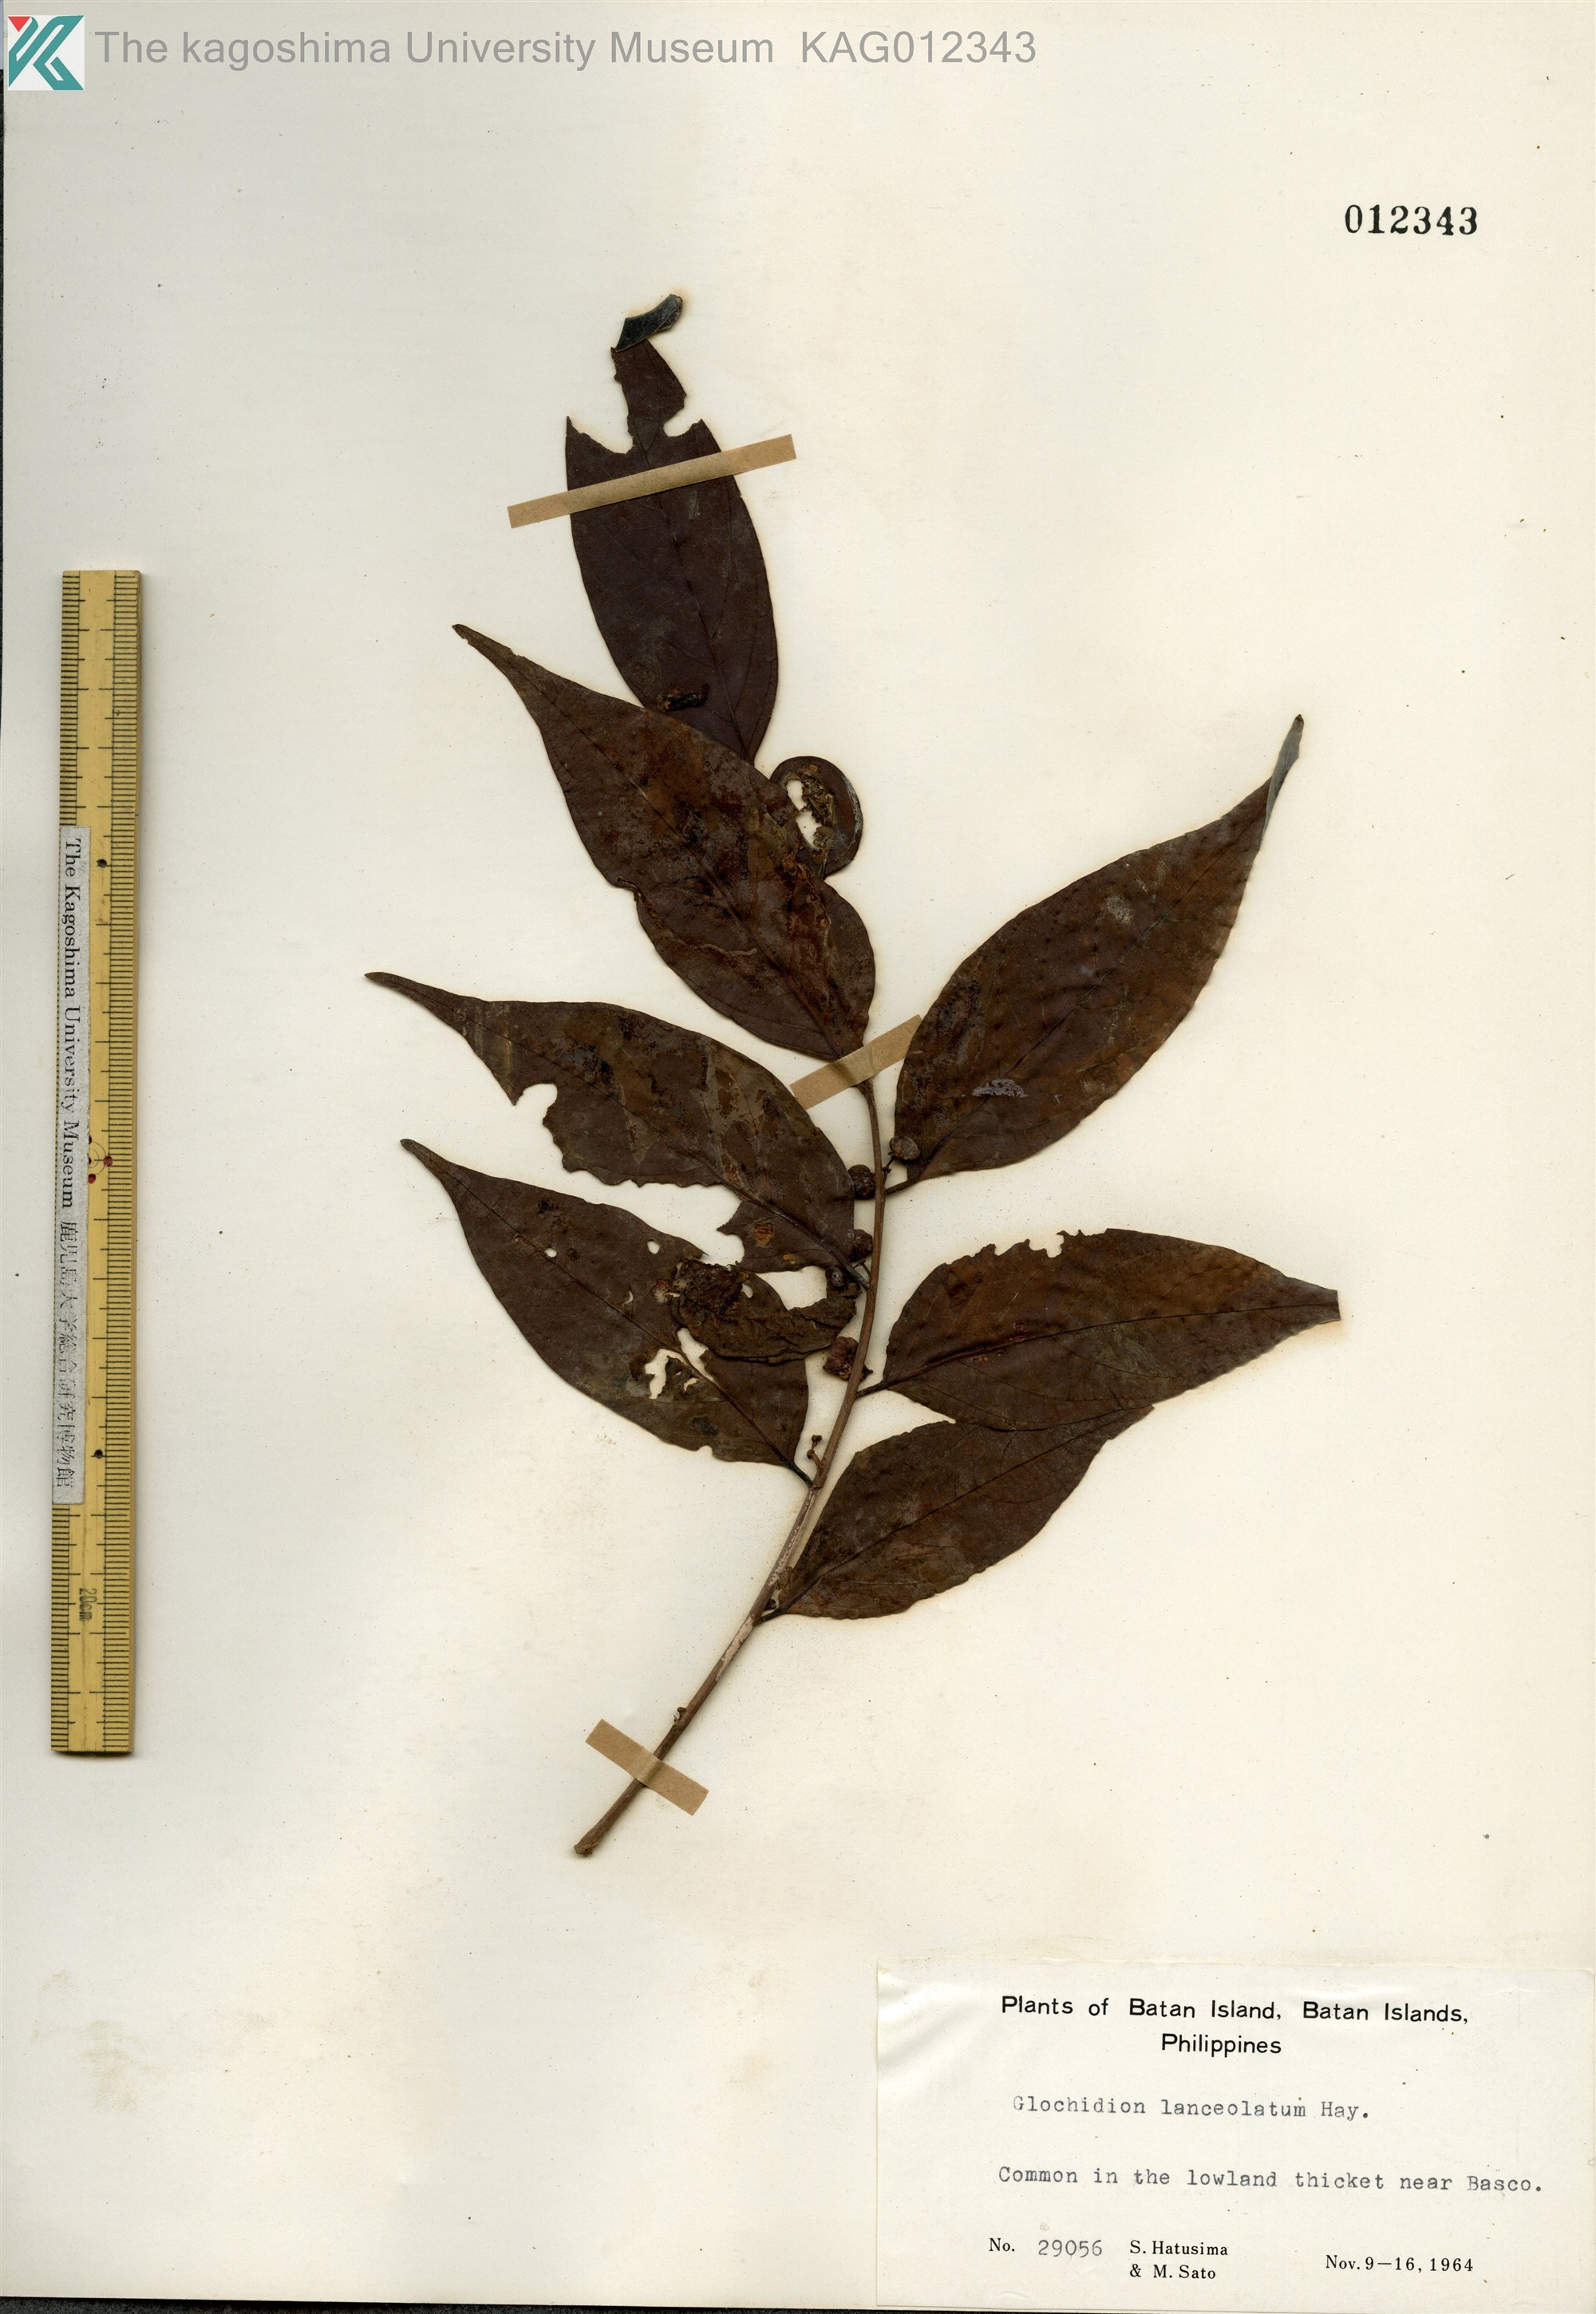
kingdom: Plantae
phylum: Tracheophyta
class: Magnoliopsida
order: Malpighiales
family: Phyllanthaceae
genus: Glochidion
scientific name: Glochidion lanceolatum
